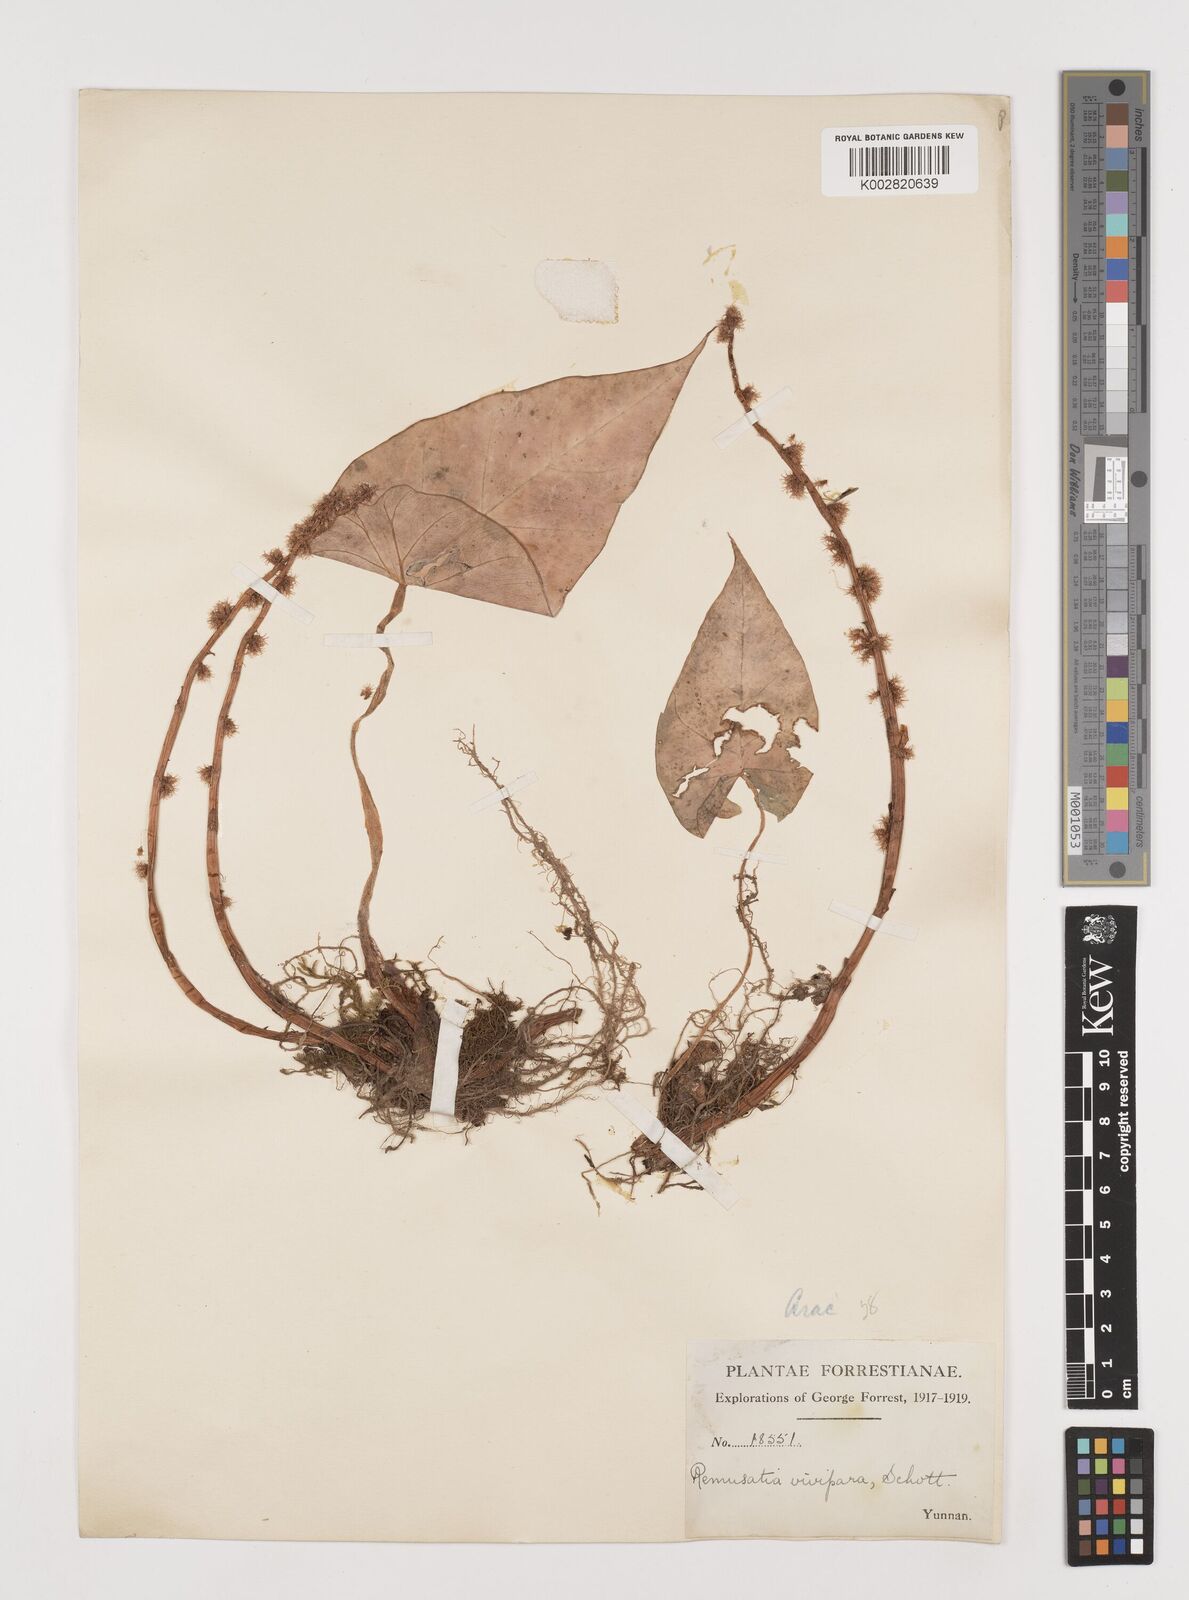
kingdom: Plantae
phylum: Tracheophyta
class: Liliopsida
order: Alismatales
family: Araceae
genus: Remusatia
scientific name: Remusatia vivipara
